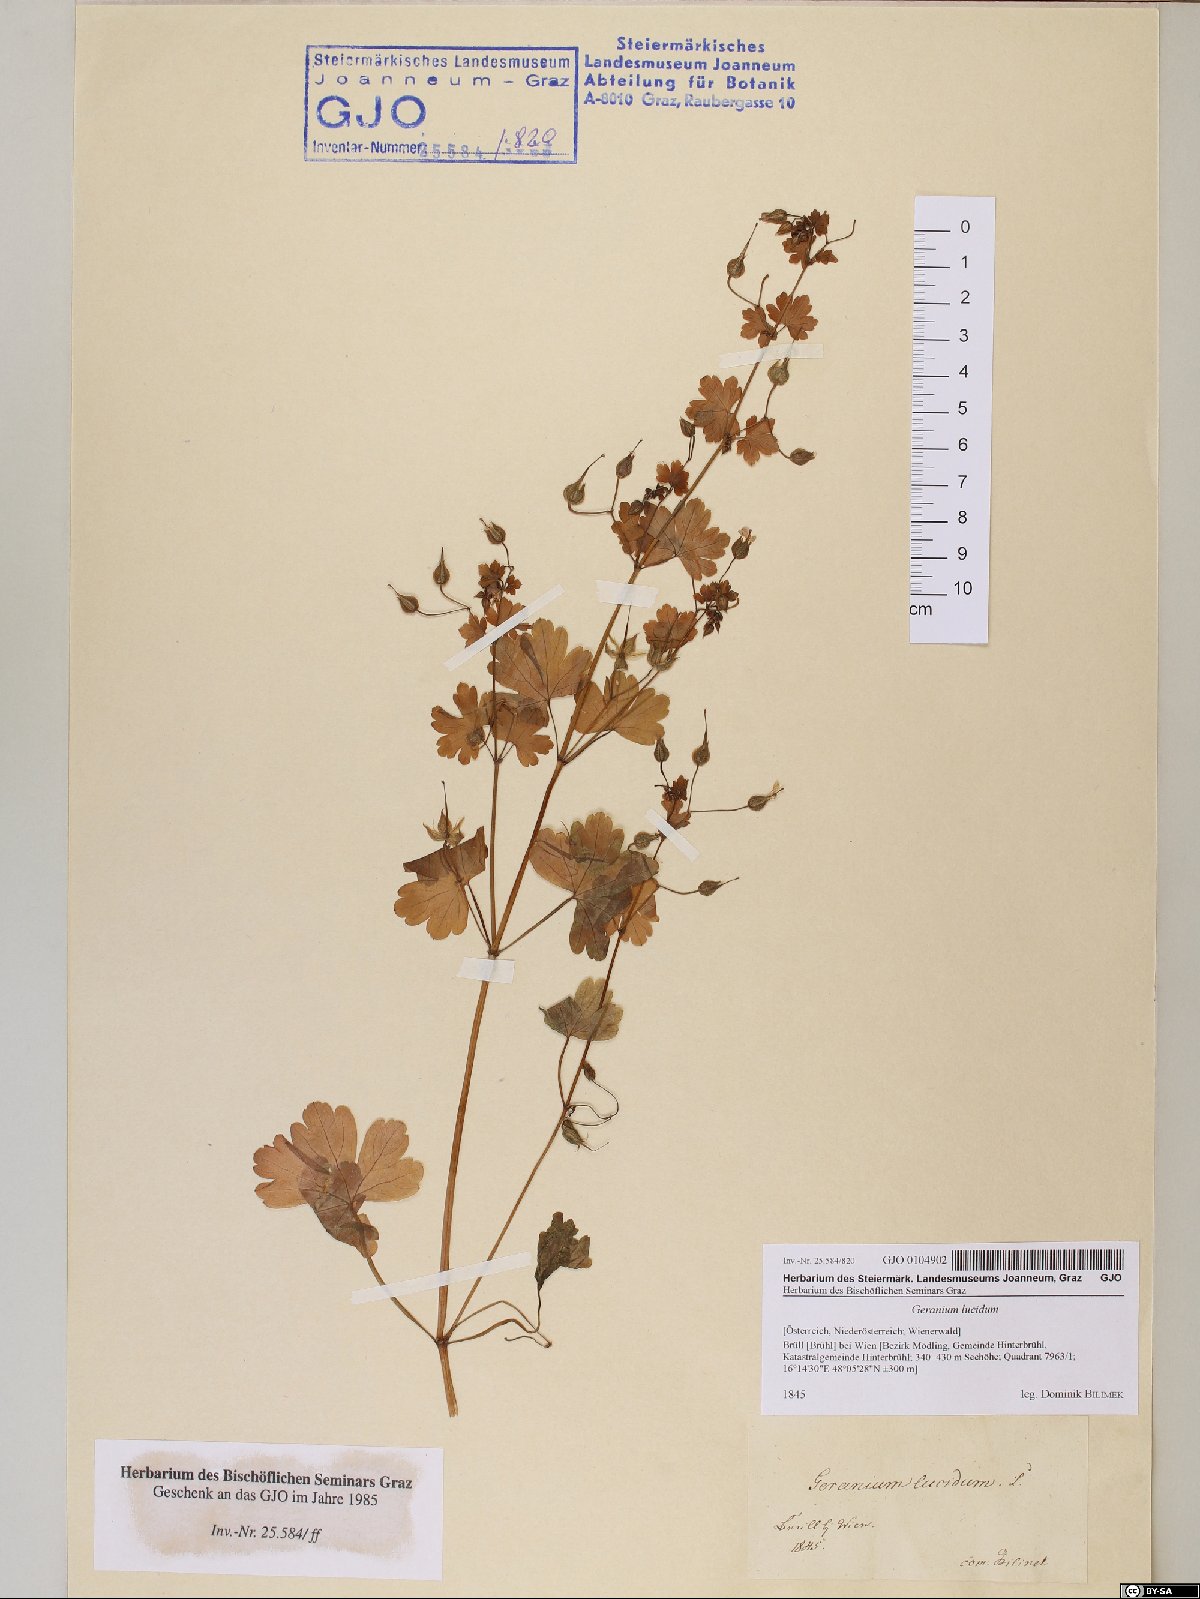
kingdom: Plantae
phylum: Tracheophyta
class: Magnoliopsida
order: Geraniales
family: Geraniaceae
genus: Geranium
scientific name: Geranium lucidum
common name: Shining crane's-bill
